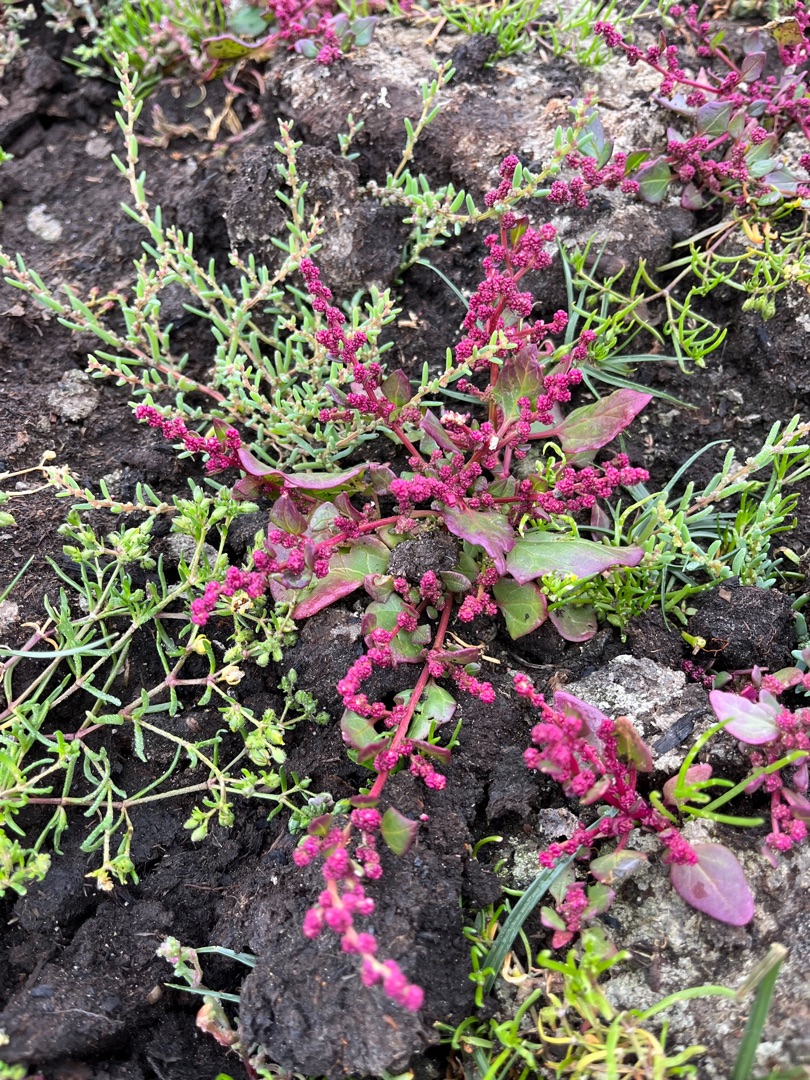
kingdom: Plantae
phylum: Tracheophyta
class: Magnoliopsida
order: Caryophyllales
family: Amaranthaceae
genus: Oxybasis
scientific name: Oxybasis chenopodioides
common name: Drue-gåsefod
